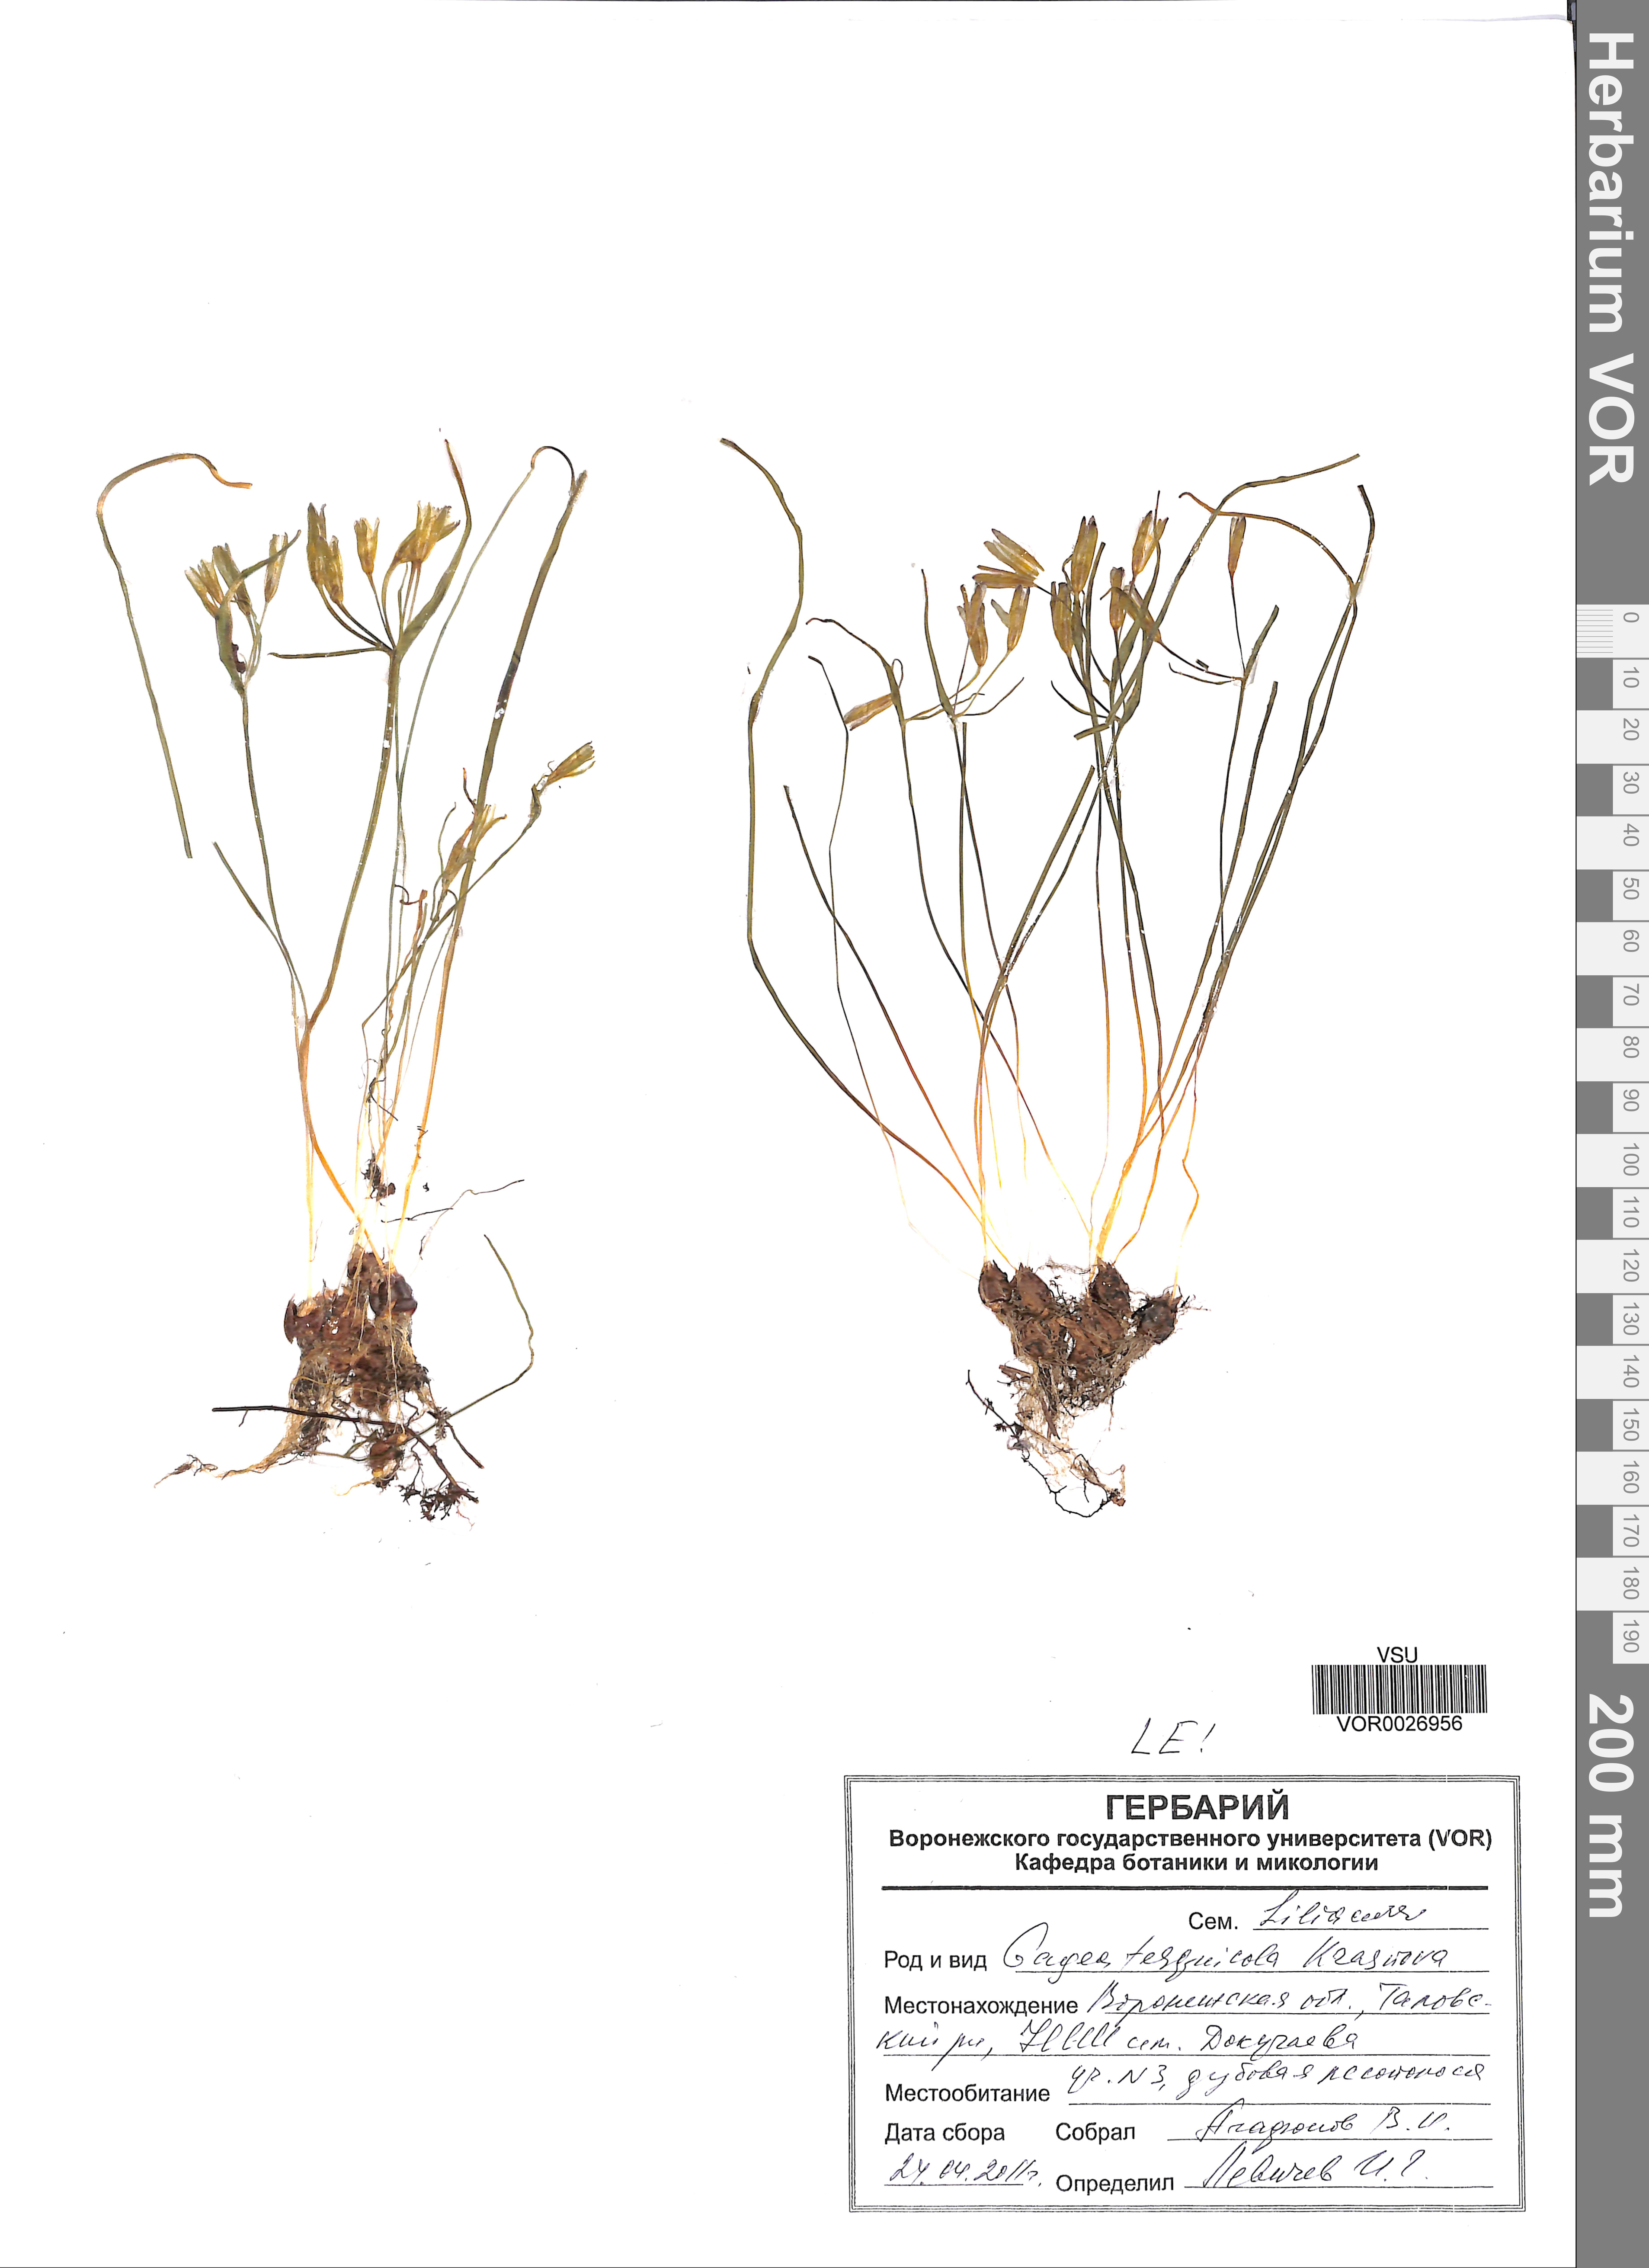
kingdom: Plantae
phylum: Tracheophyta
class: Liliopsida
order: Liliales
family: Liliaceae
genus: Gagea
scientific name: Gagea tesquicola
